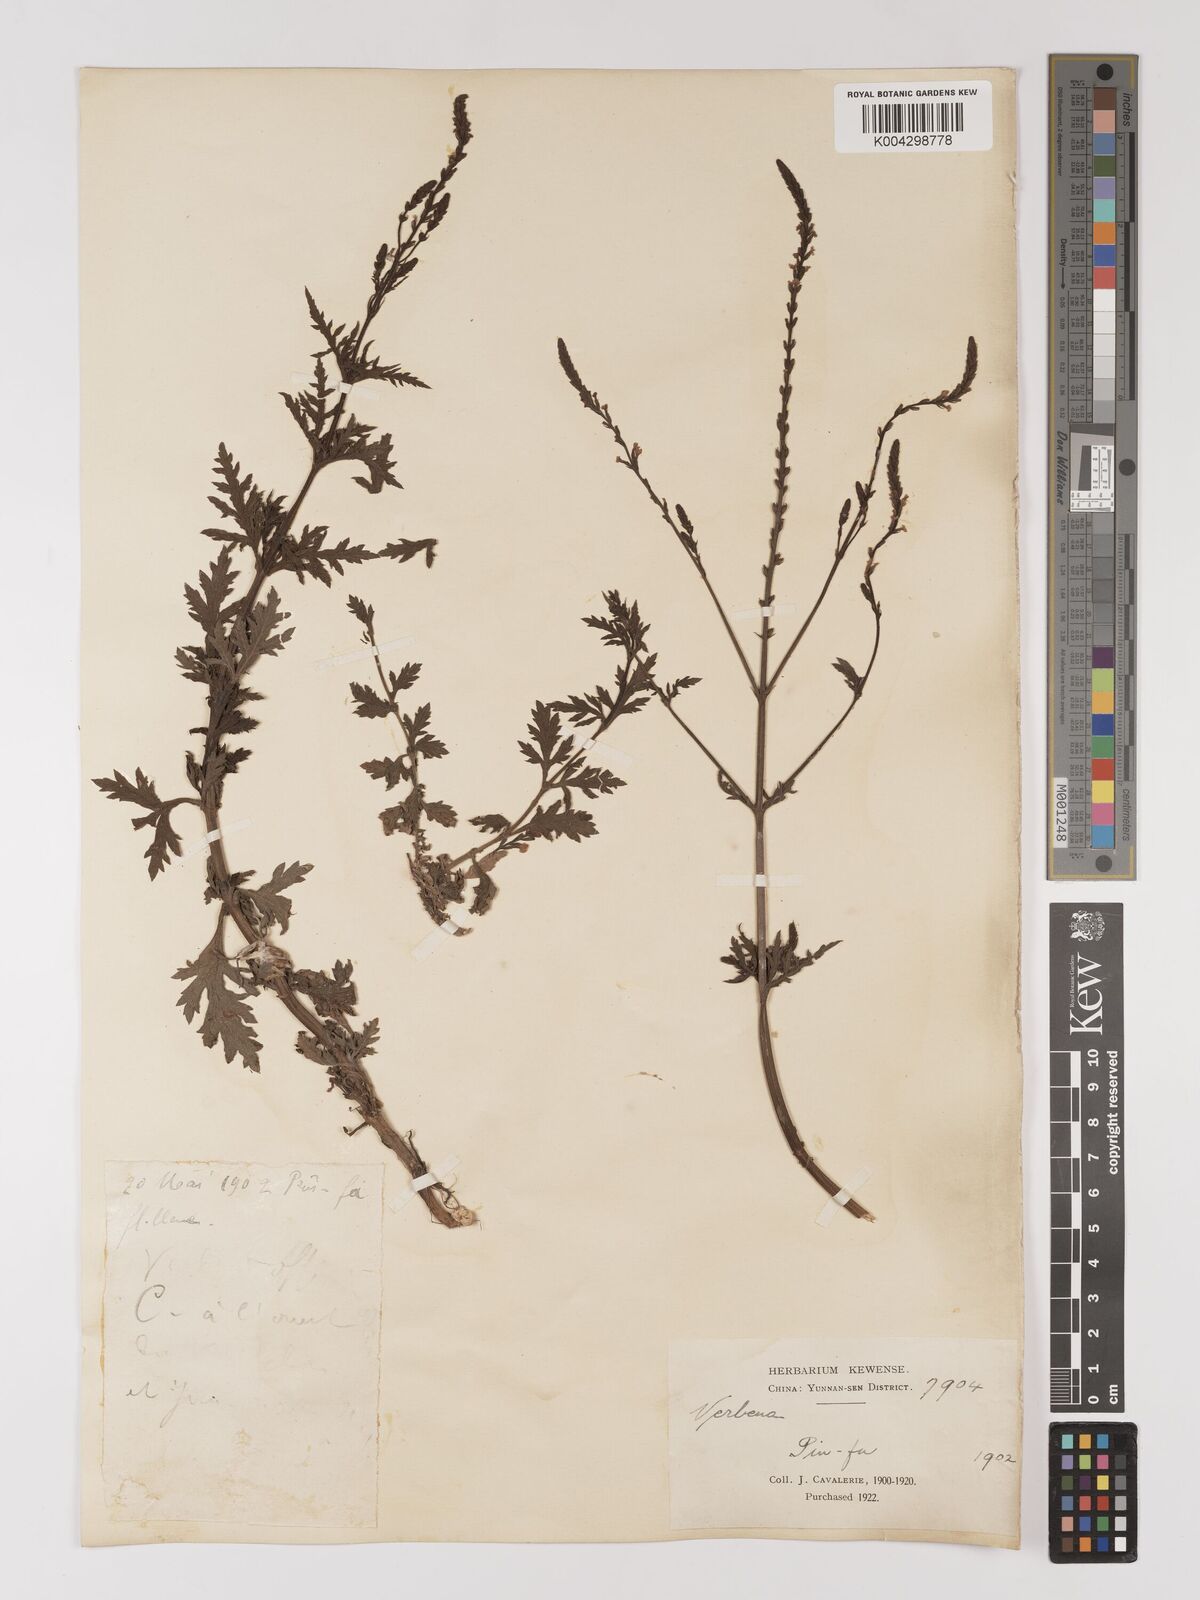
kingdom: Plantae
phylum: Tracheophyta
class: Magnoliopsida
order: Lamiales
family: Verbenaceae
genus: Verbena
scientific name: Verbena officinalis
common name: Vervain
